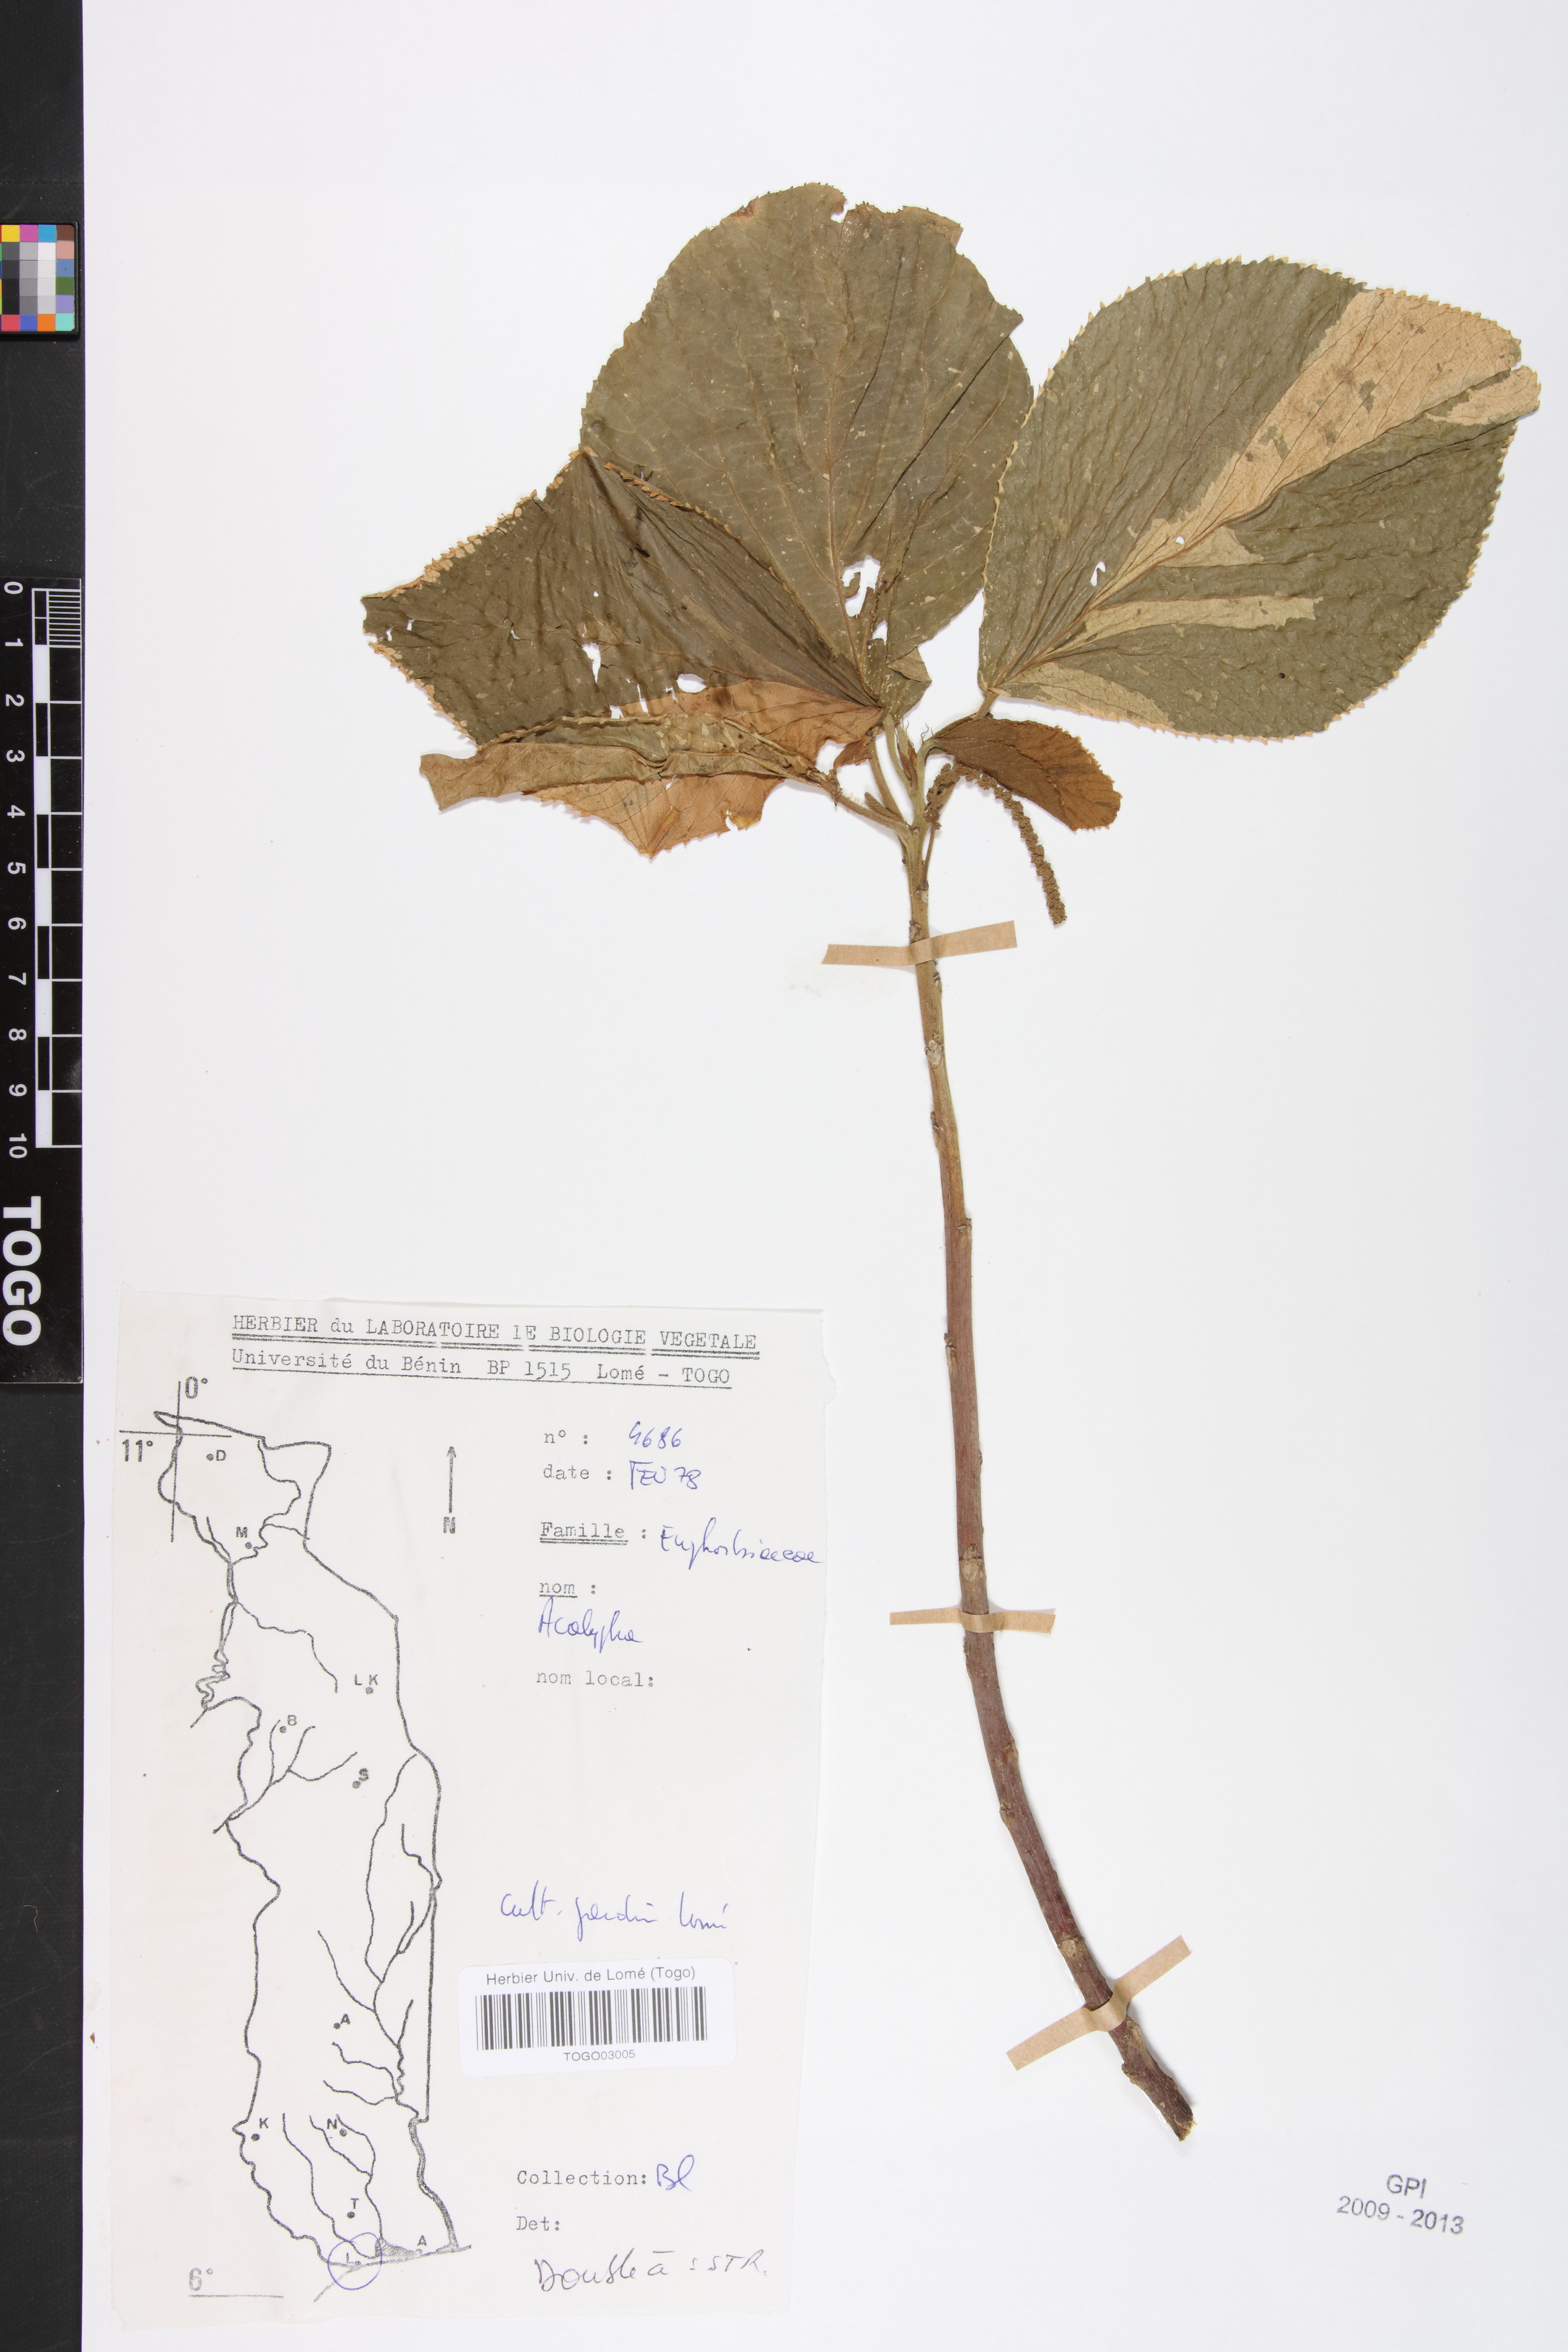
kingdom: Plantae
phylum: Tracheophyta
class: Magnoliopsida
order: Malpighiales
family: Euphorbiaceae
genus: Acalypha
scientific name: Acalypha paniculata
